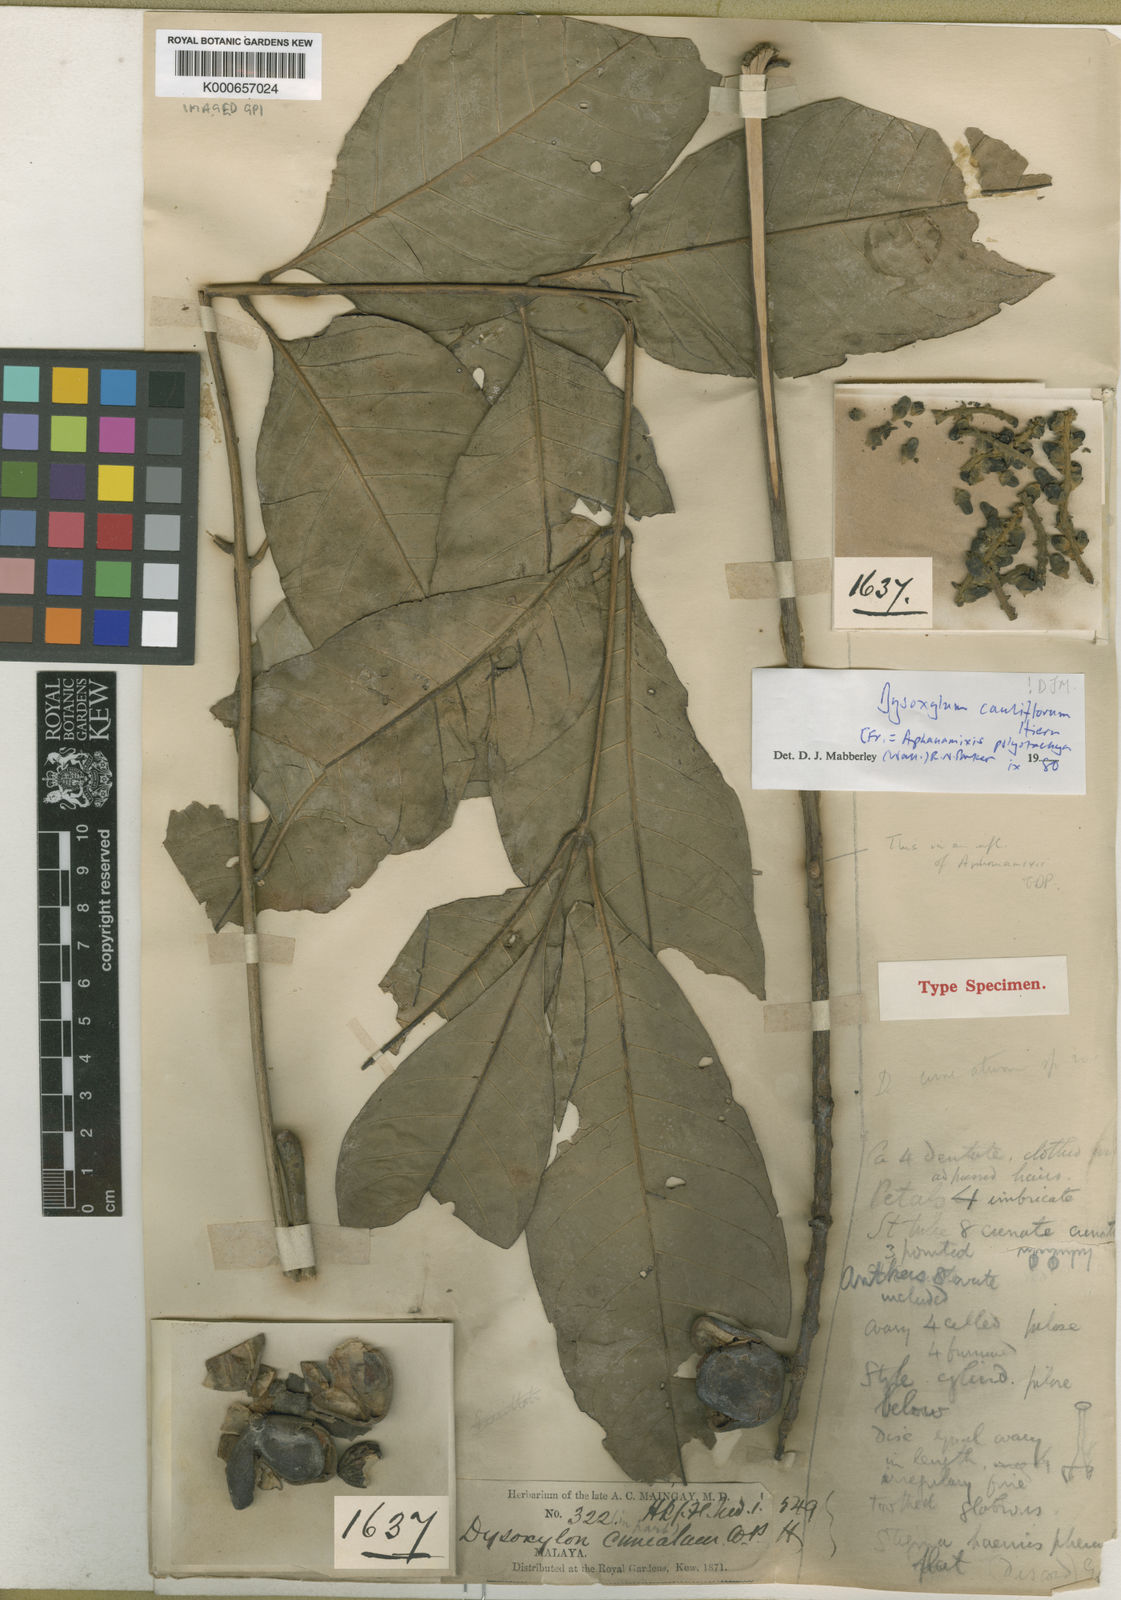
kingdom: Plantae
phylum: Tracheophyta
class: Magnoliopsida
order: Sapindales
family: Meliaceae
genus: Epicharis
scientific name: Epicharis cuneata
